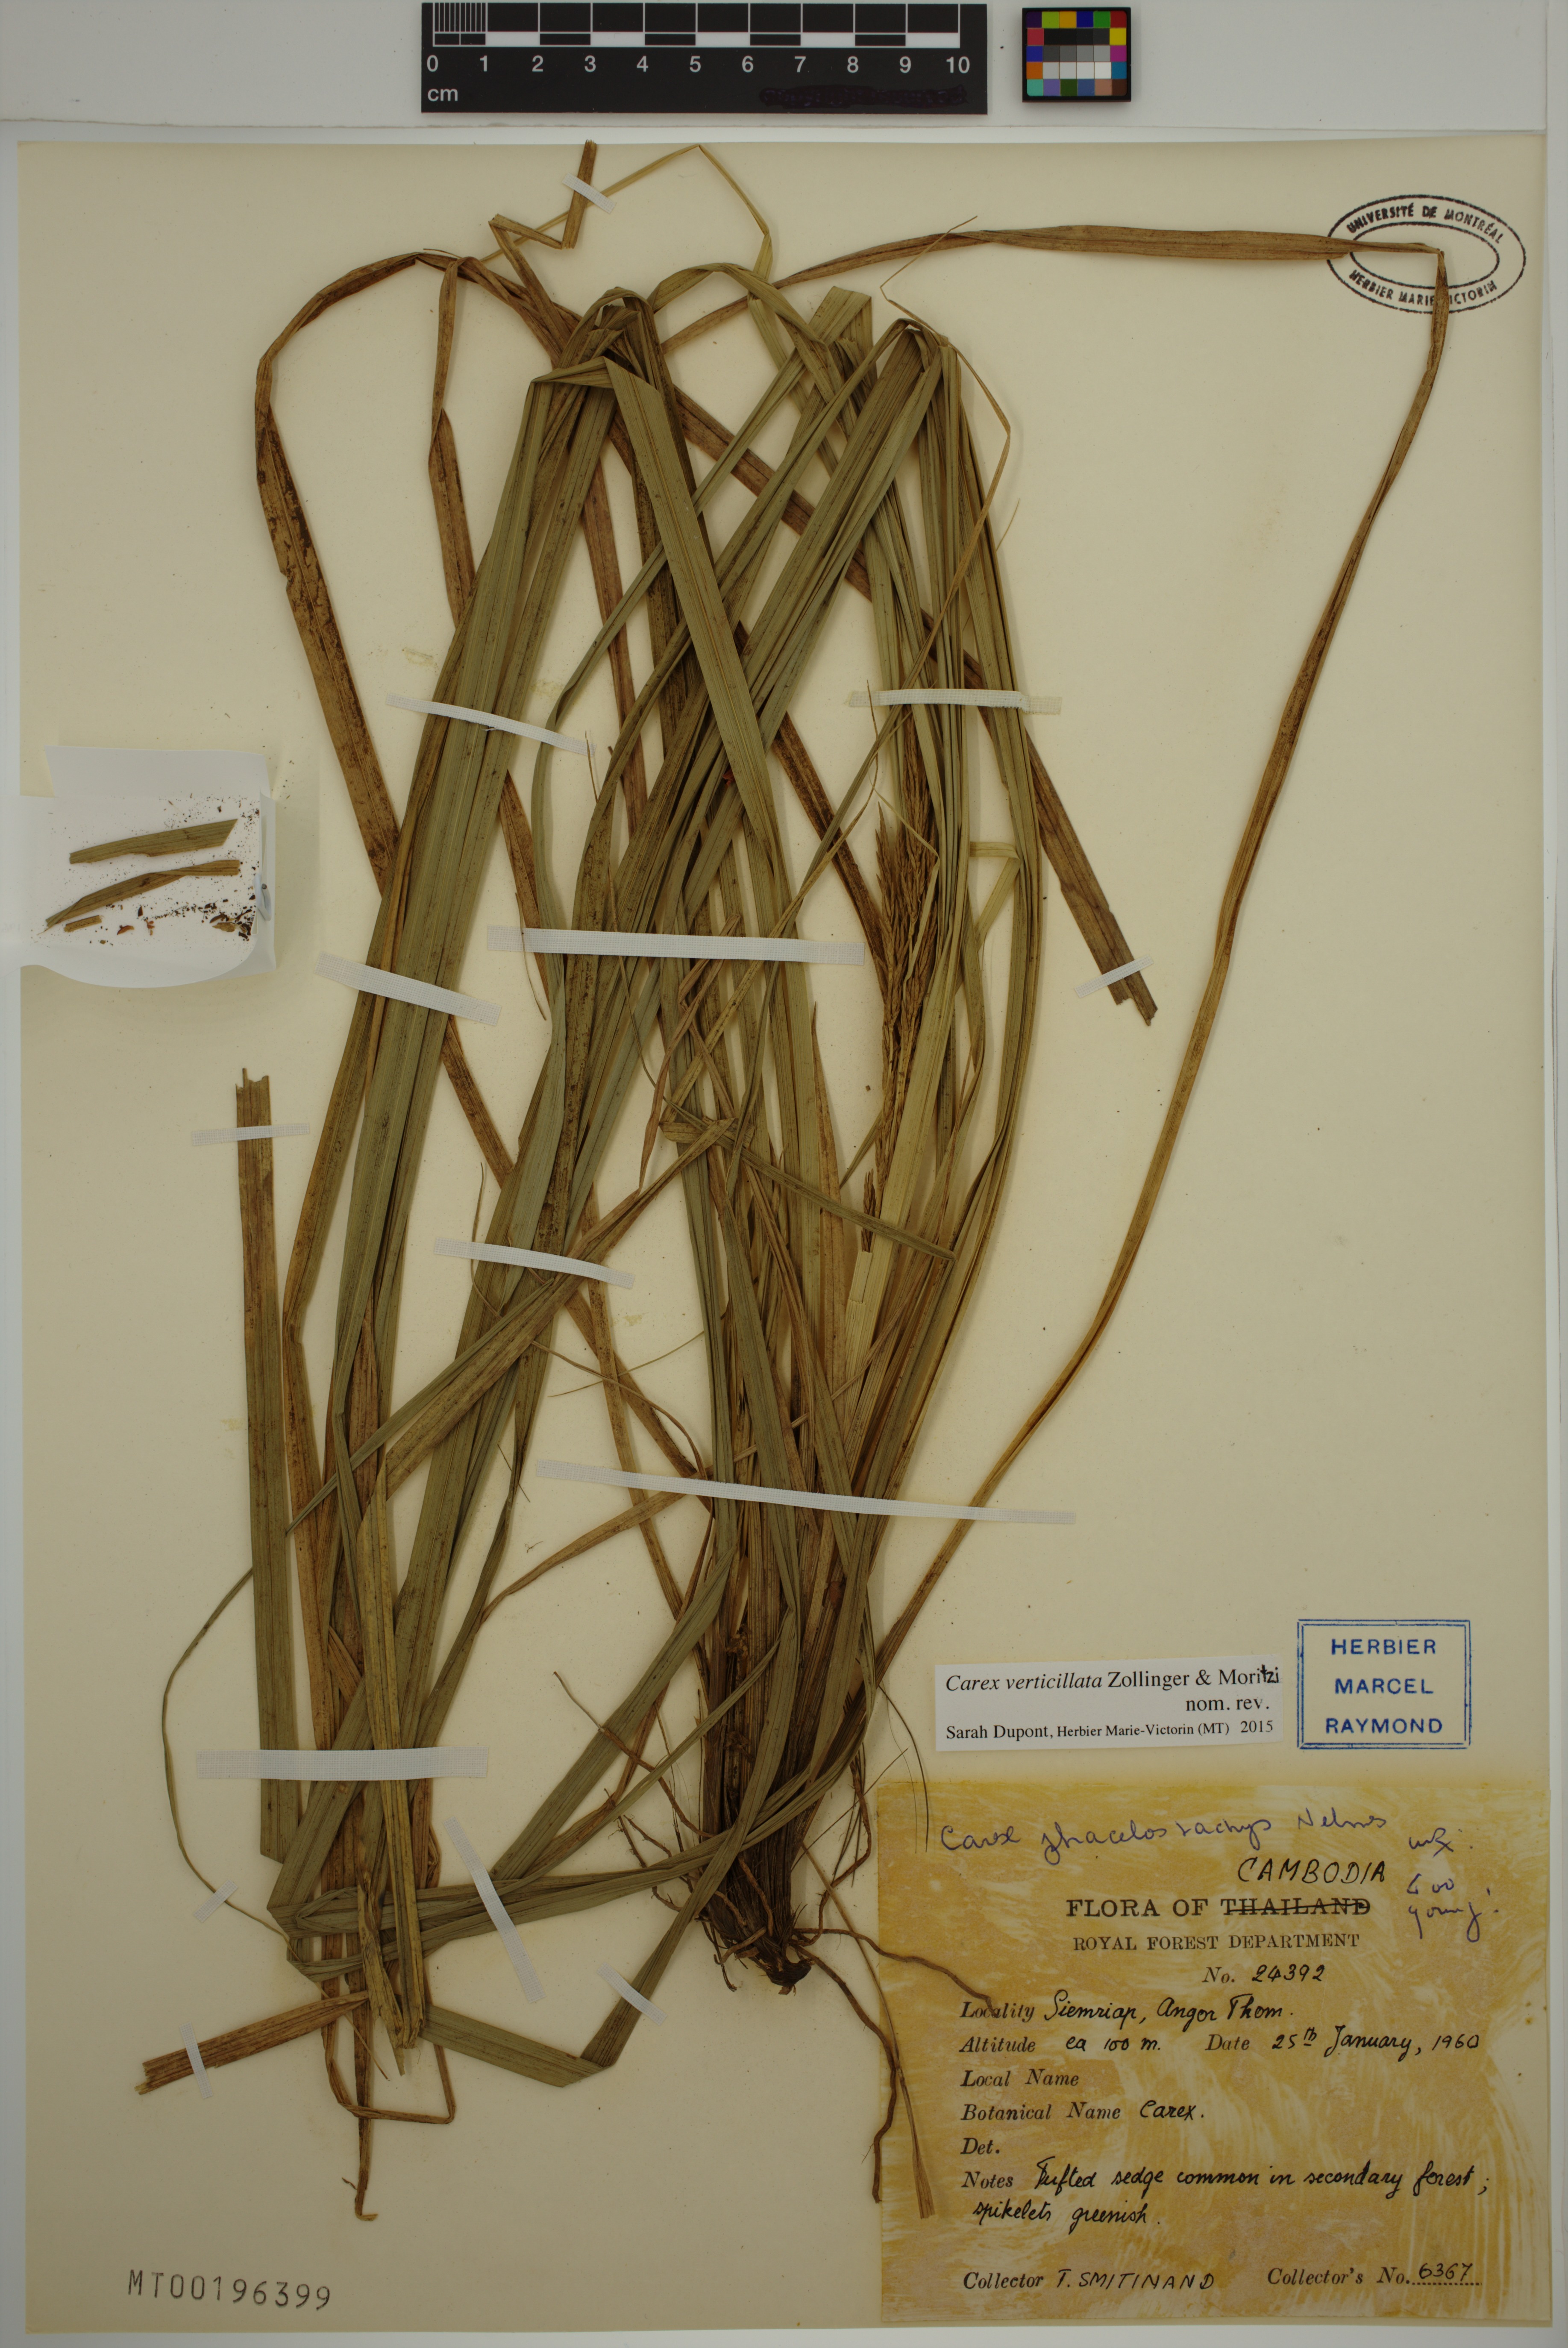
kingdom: Plantae
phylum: Tracheophyta
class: Liliopsida
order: Poales
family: Cyperaceae
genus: Carex
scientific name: Carex verticillata
